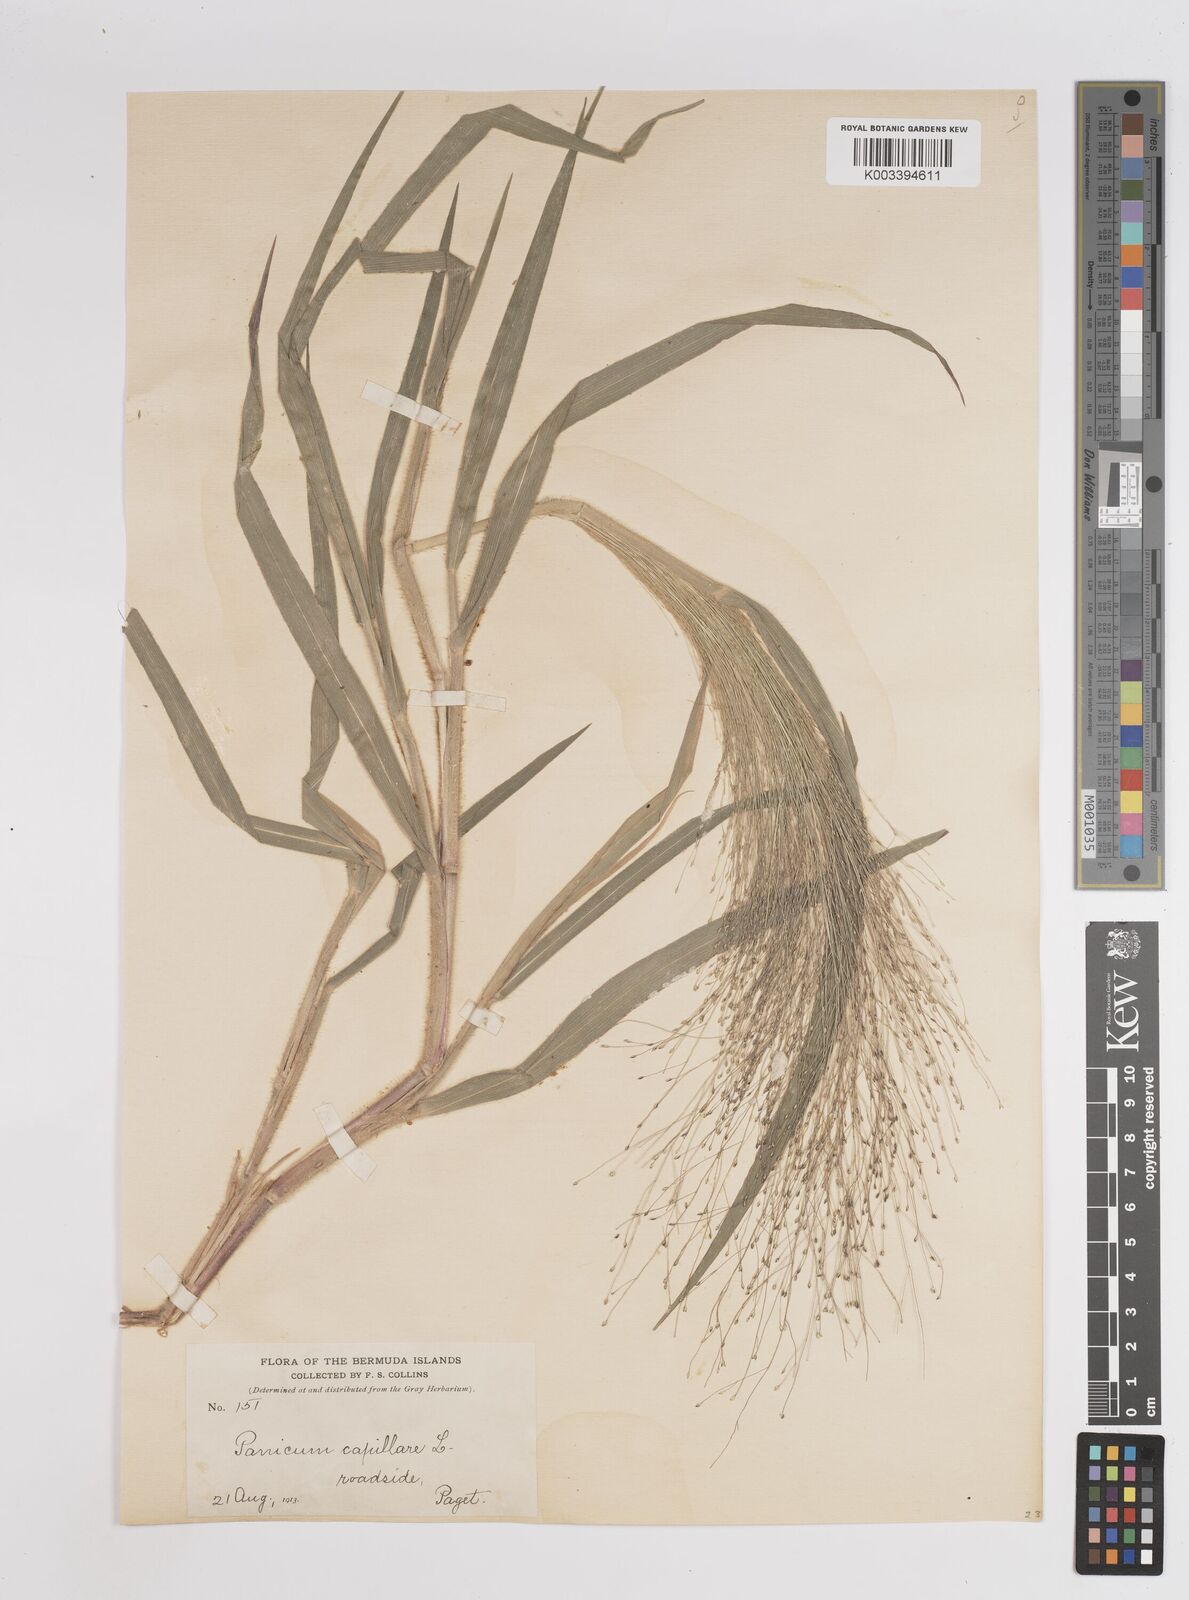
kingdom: Plantae
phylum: Tracheophyta
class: Liliopsida
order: Poales
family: Poaceae
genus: Panicum
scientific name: Panicum capillare
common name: Witch-grass
